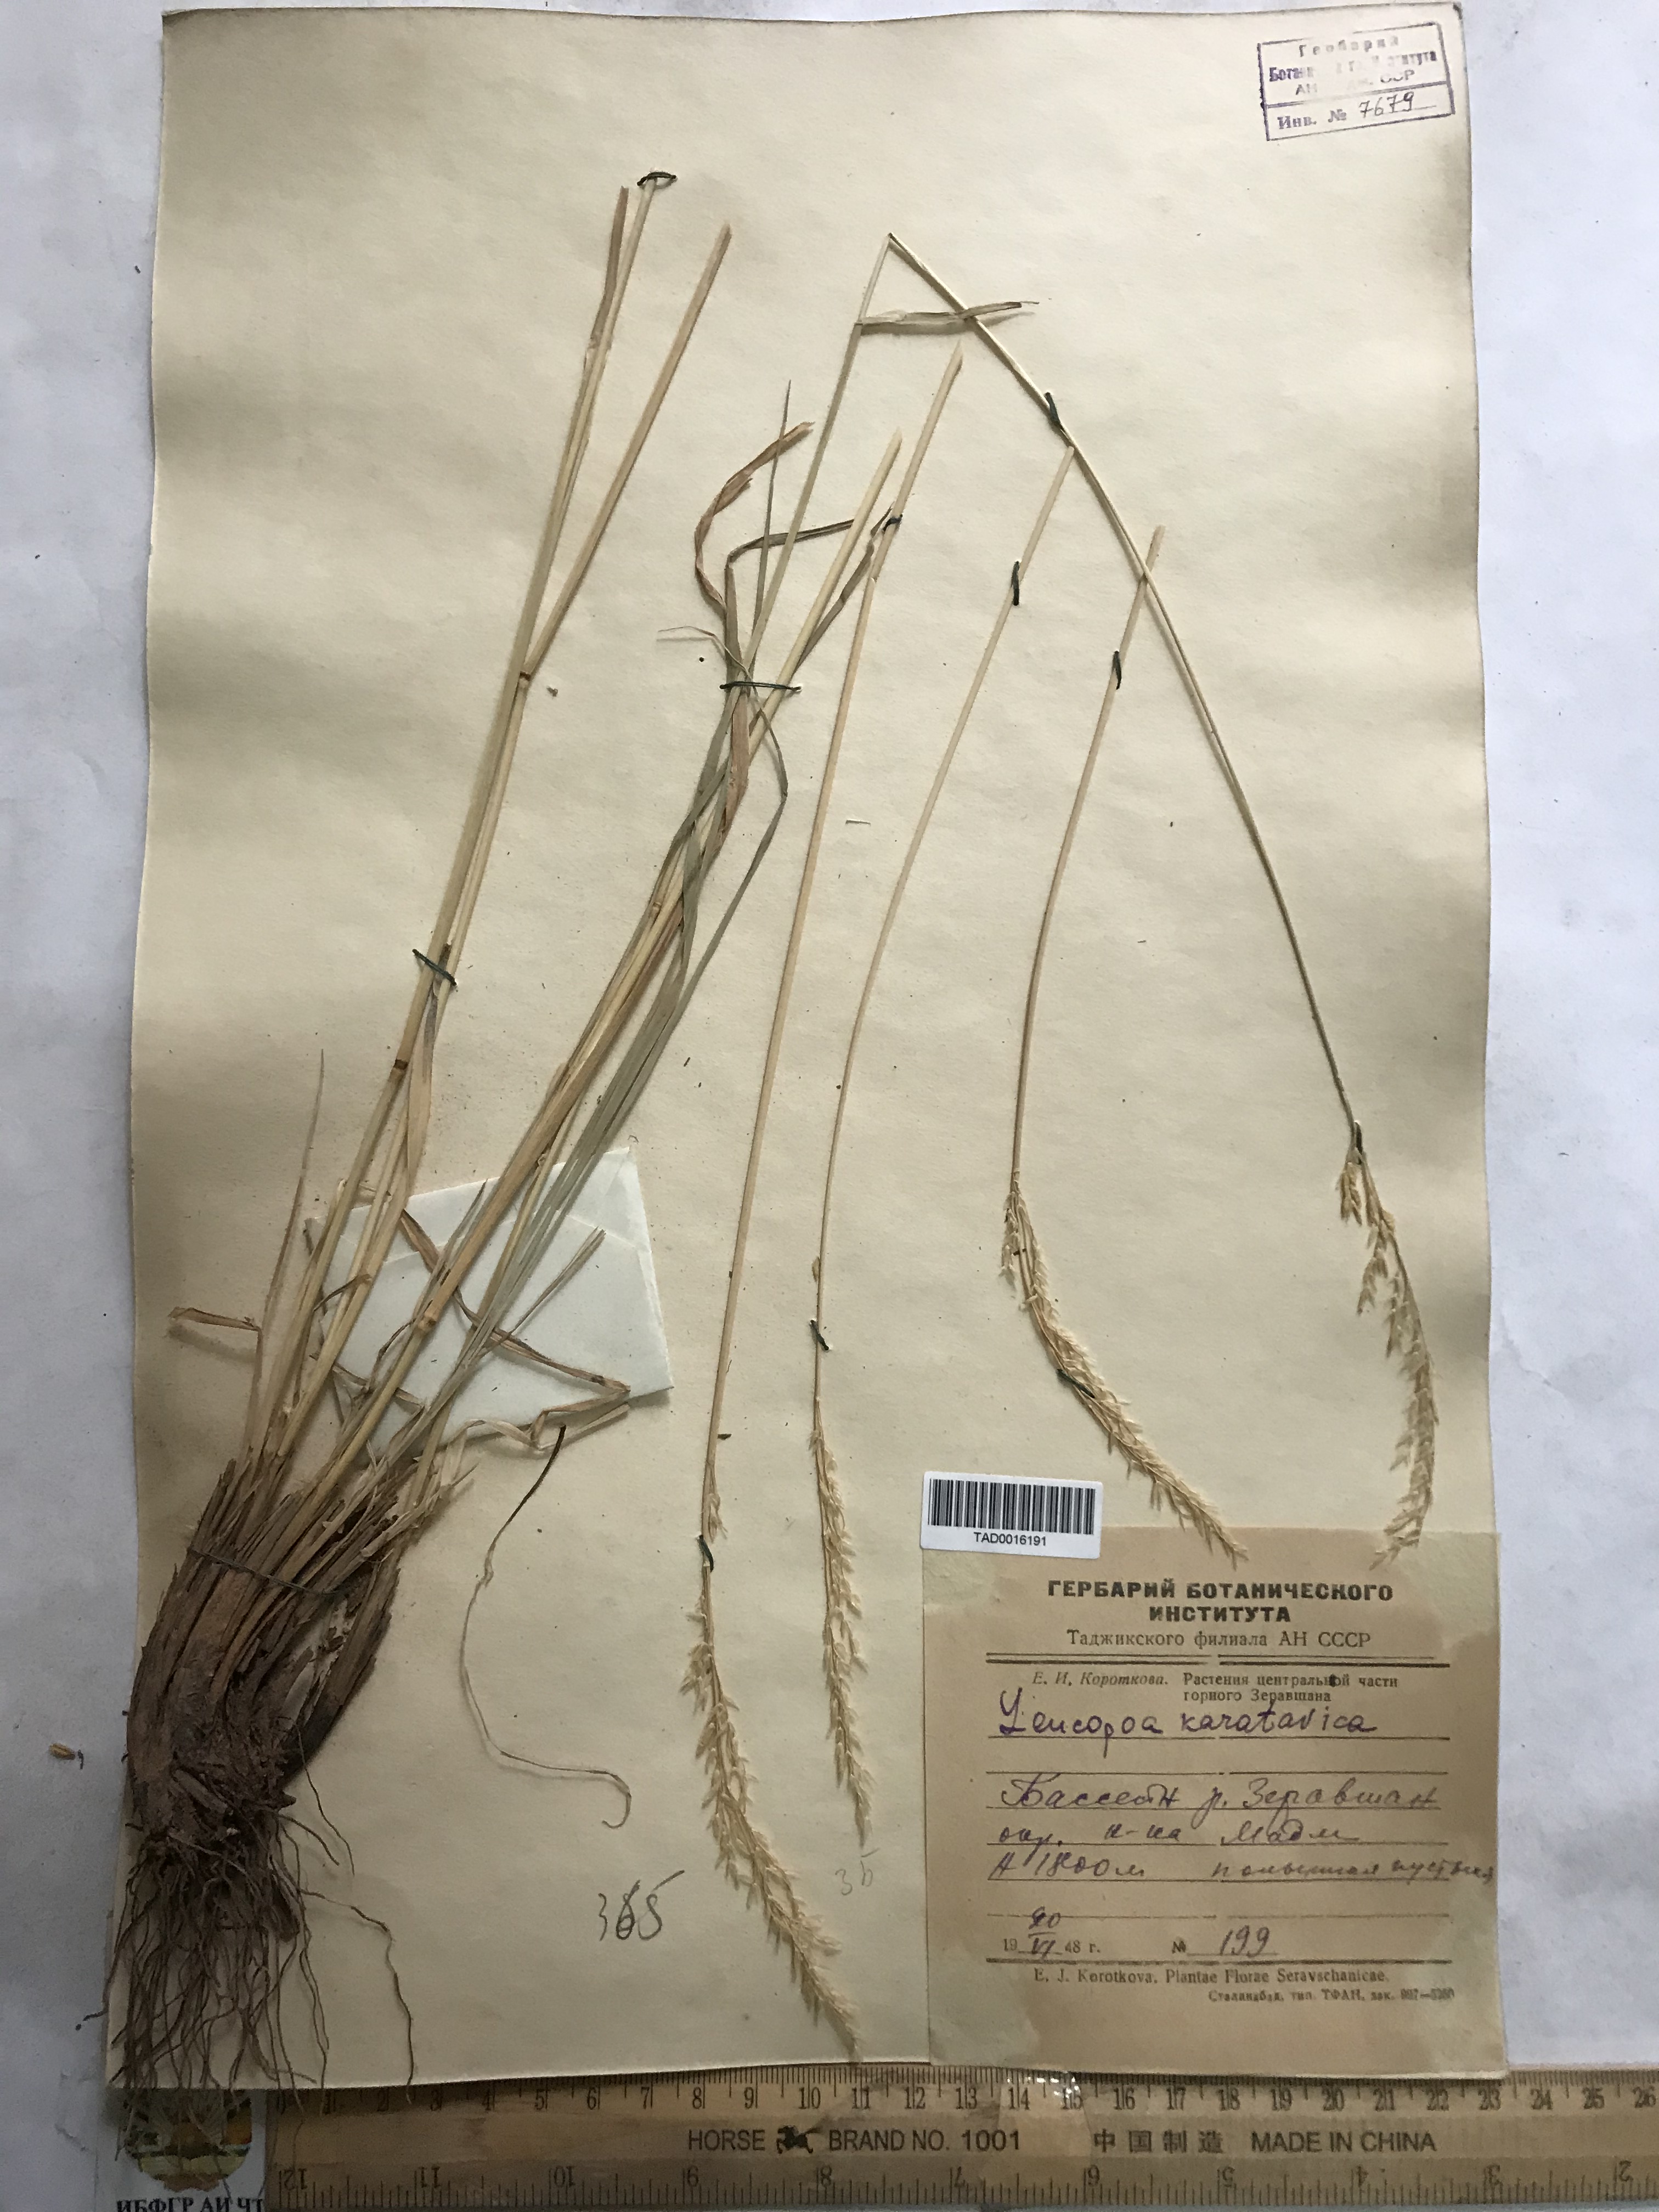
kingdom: Plantae
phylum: Tracheophyta
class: Liliopsida
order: Poales
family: Poaceae
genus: Festuca
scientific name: Festuca karatavica
